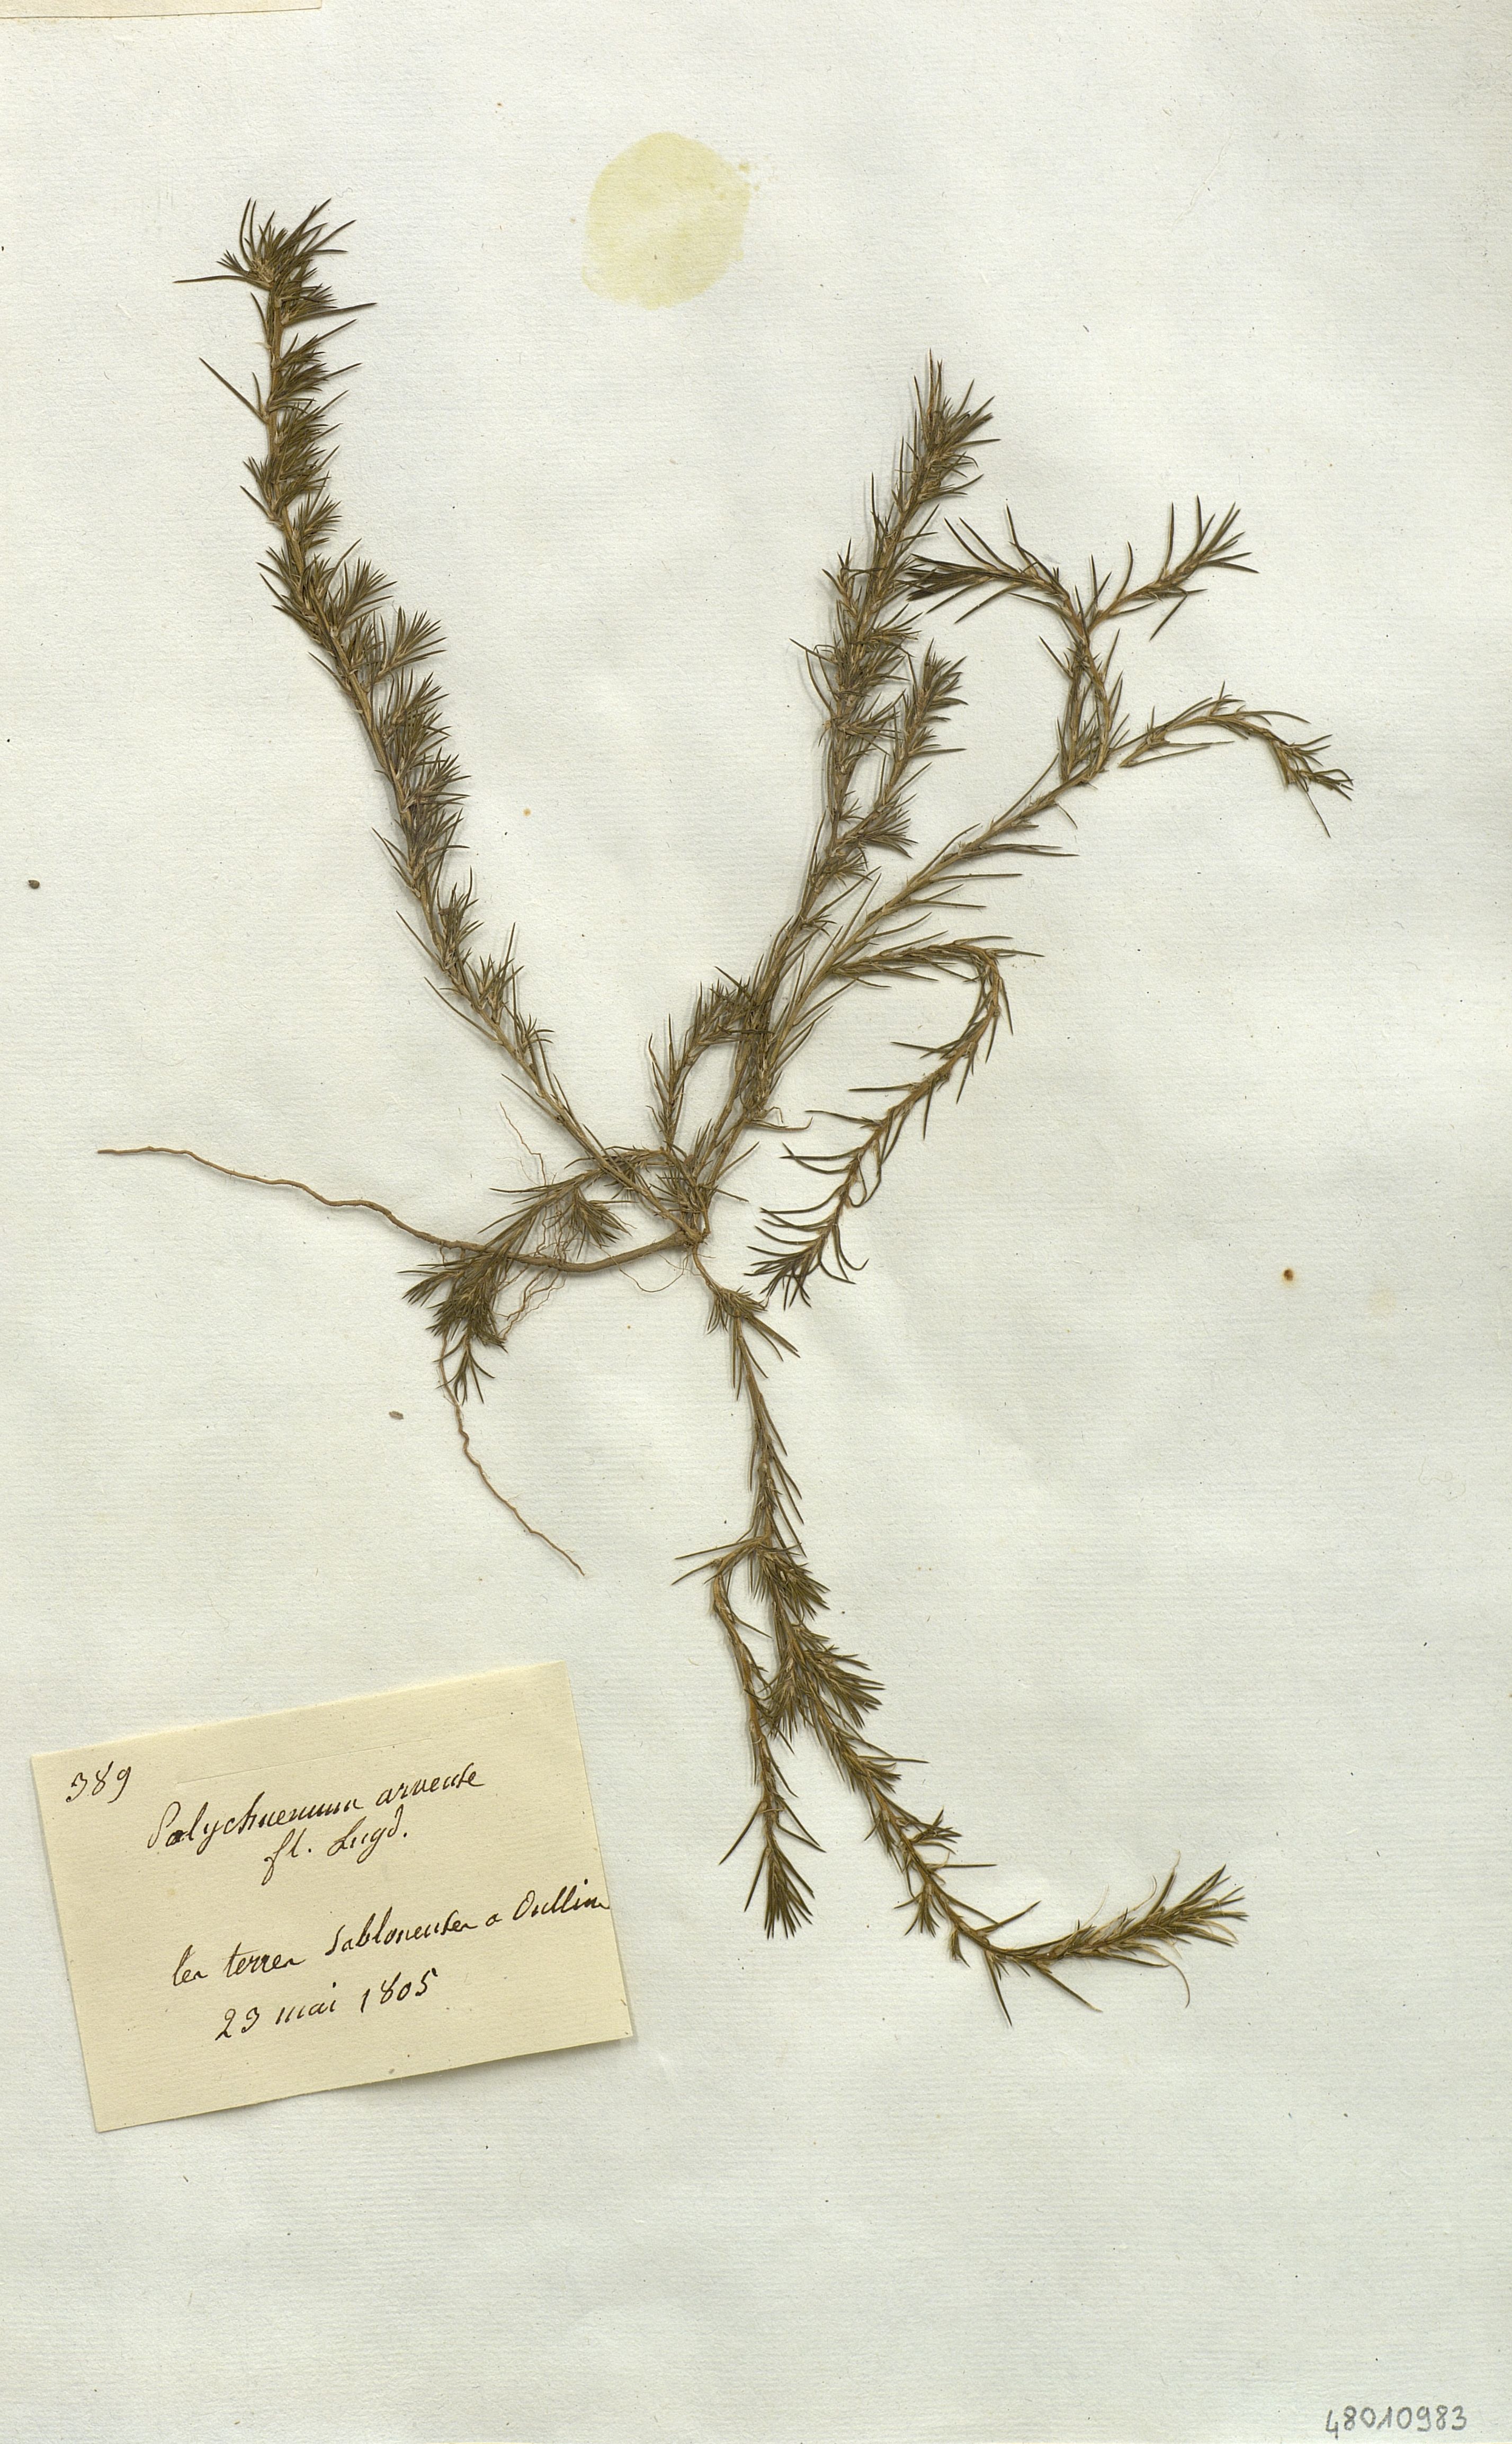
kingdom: Plantae
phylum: Tracheophyta
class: Magnoliopsida
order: Caryophyllales
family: Amaranthaceae
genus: Polychnemum
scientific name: Polychnemum
